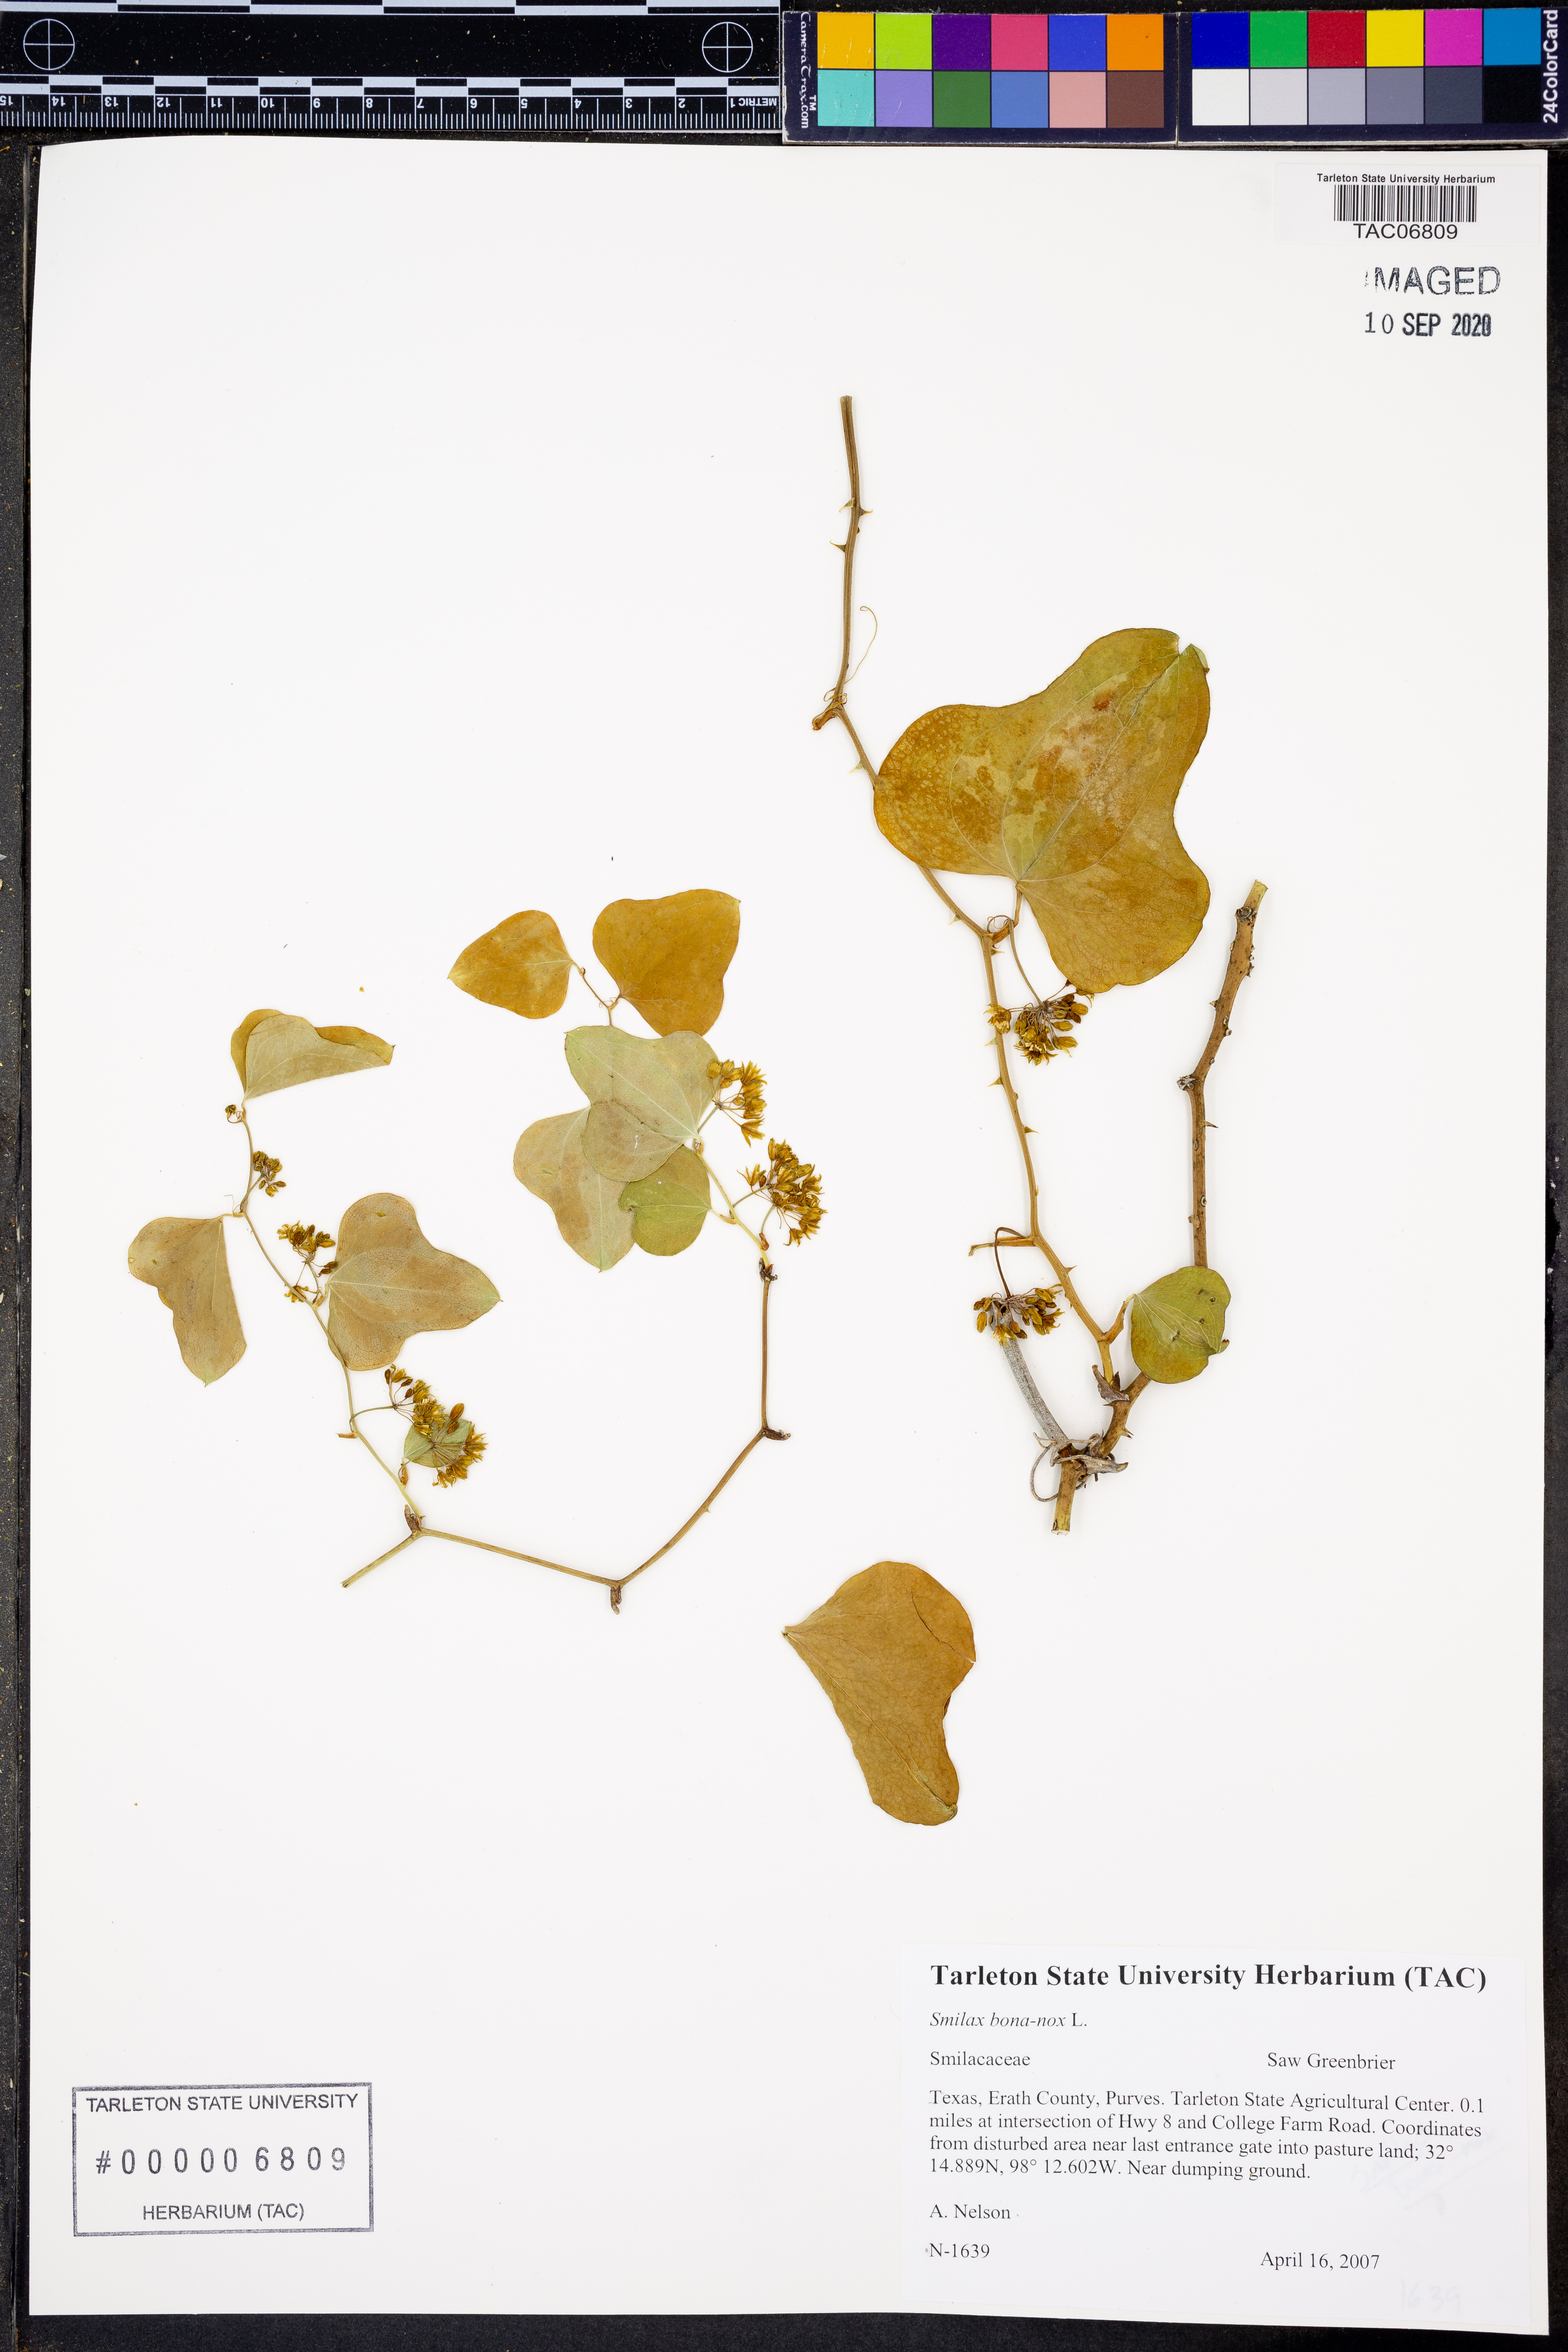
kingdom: Plantae
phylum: Tracheophyta
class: Liliopsida
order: Liliales
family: Smilacaceae
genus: Smilax
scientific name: Smilax bona-nox
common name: Catbrier
